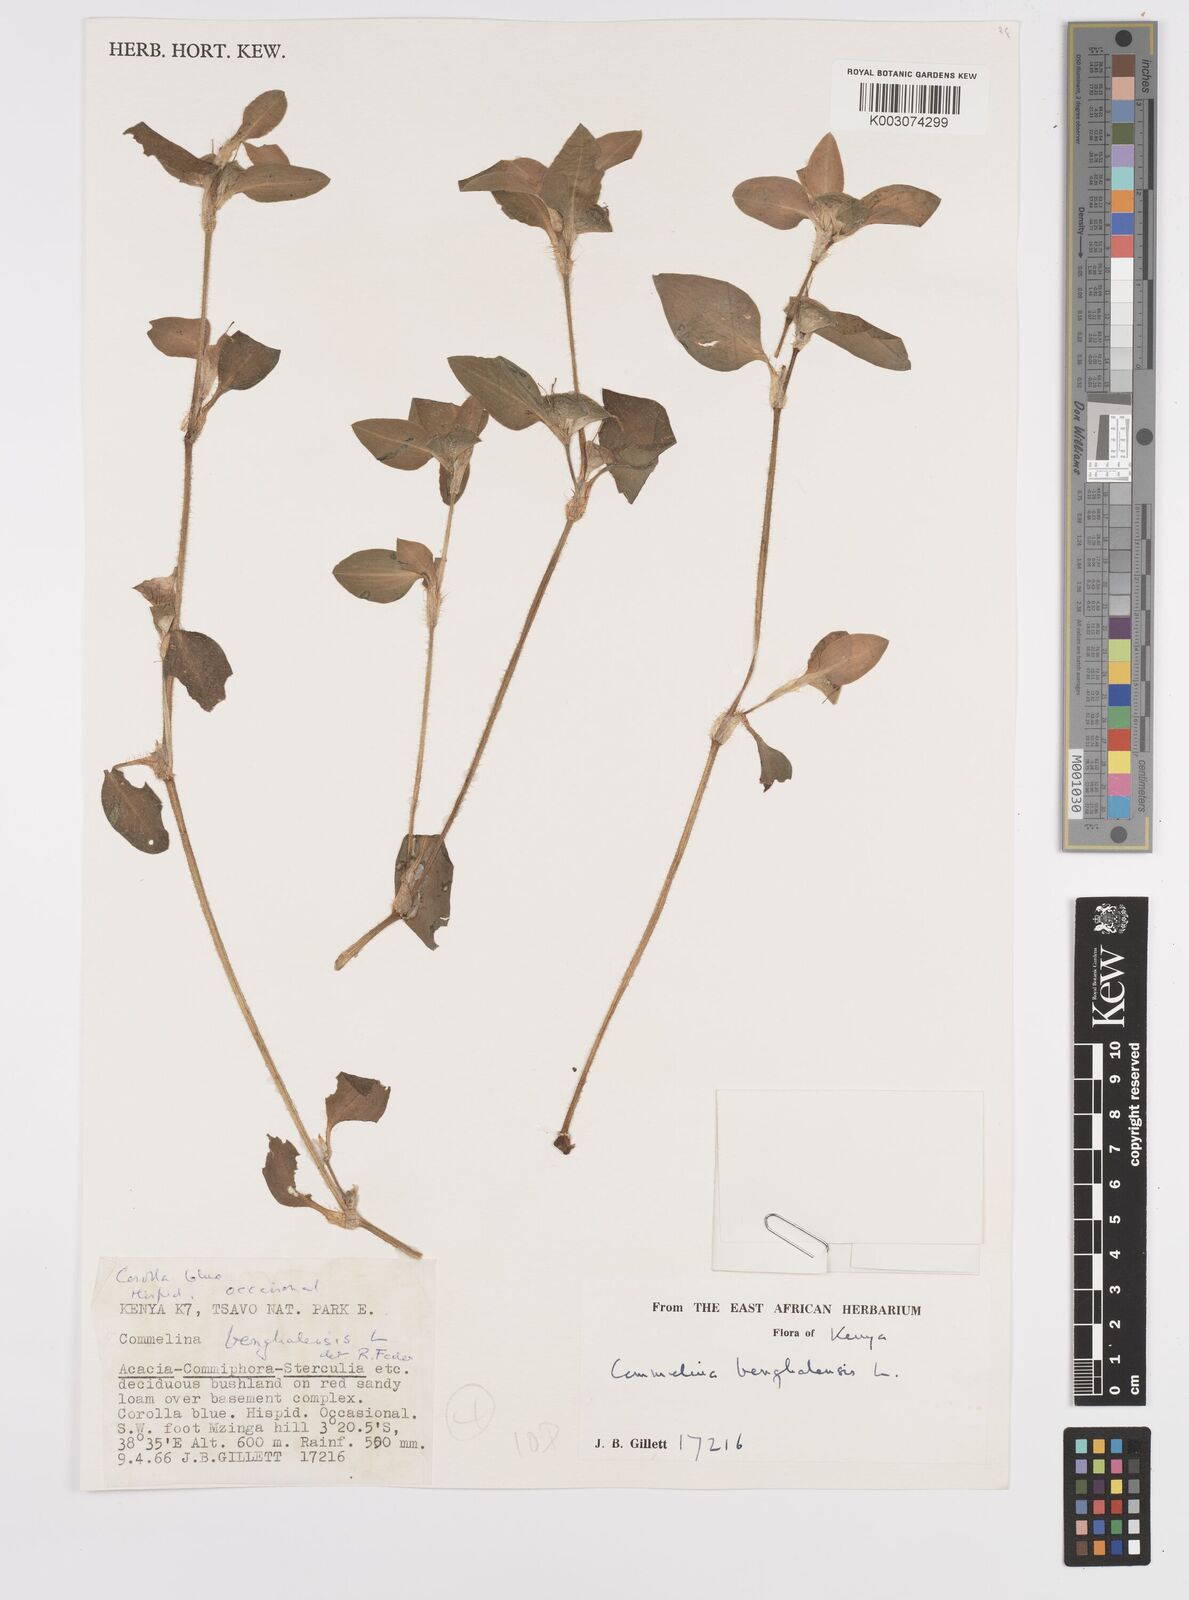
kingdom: Plantae
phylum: Tracheophyta
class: Liliopsida
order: Commelinales
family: Commelinaceae
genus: Commelina
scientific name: Commelina benghalensis
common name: Jio
